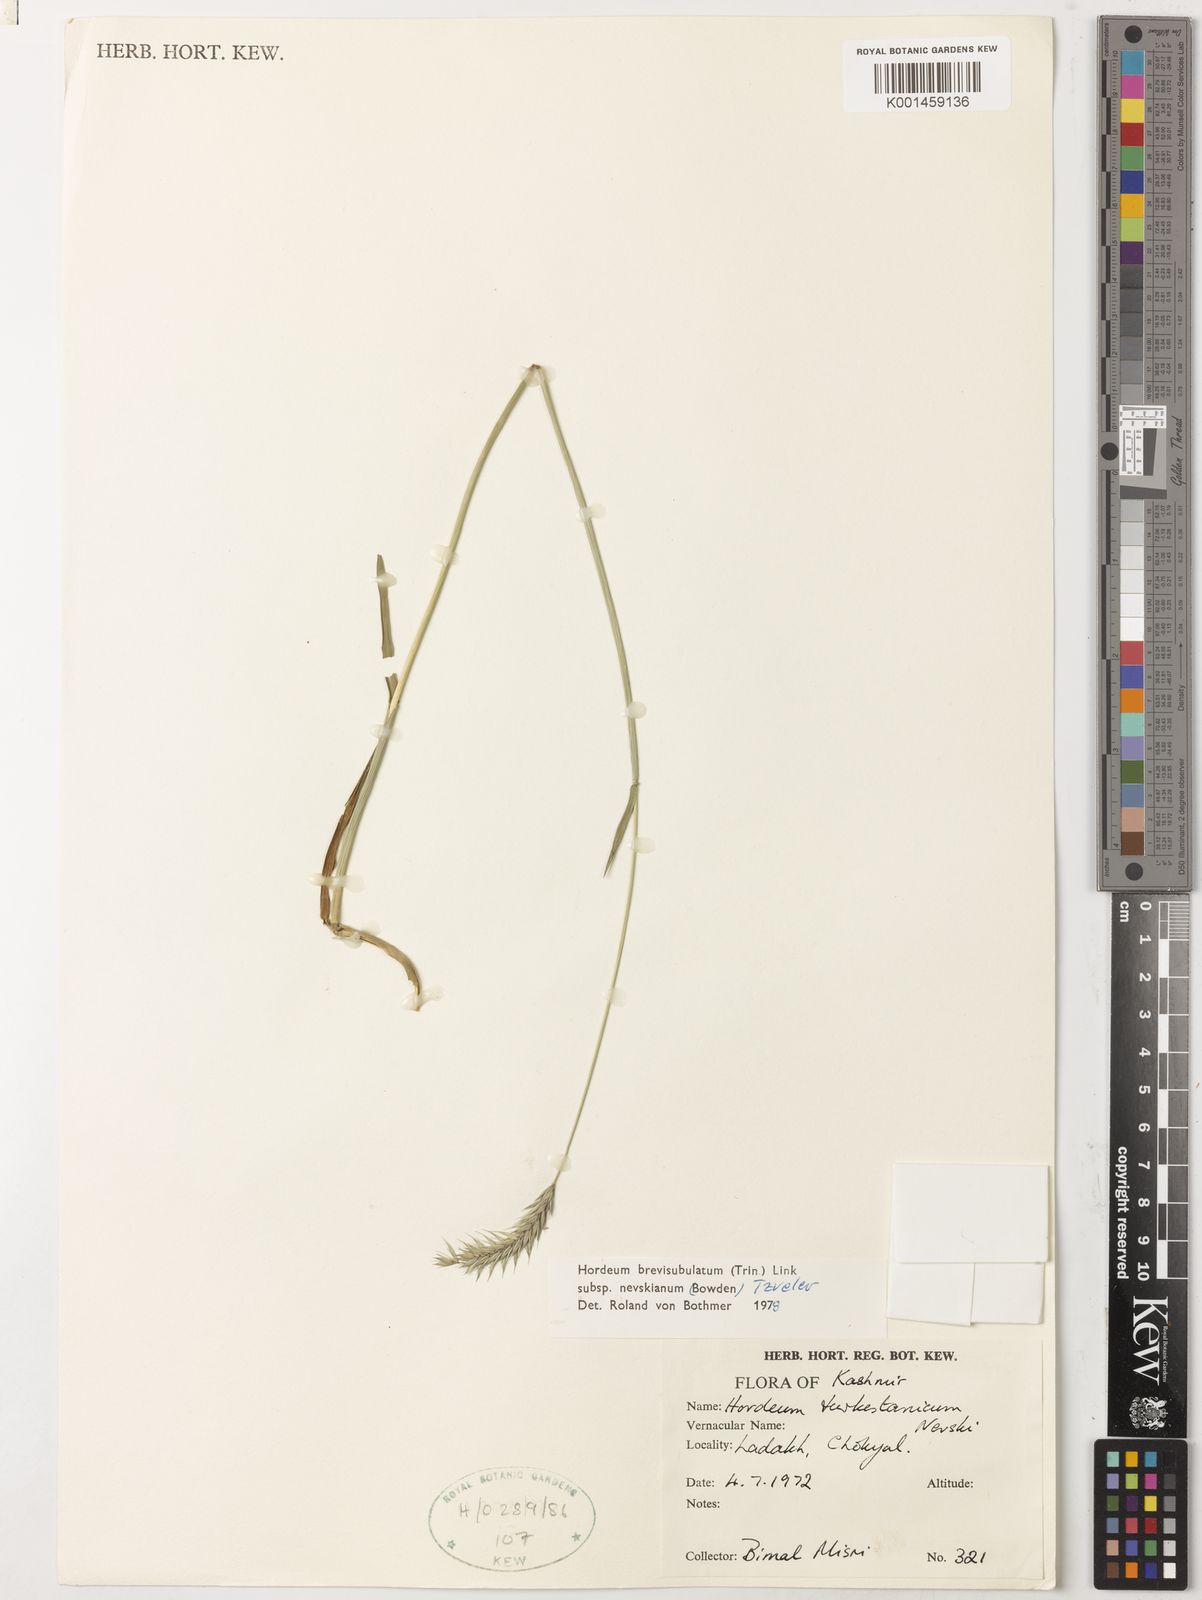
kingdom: Plantae
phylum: Tracheophyta
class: Liliopsida
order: Poales
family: Poaceae
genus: Hordeum
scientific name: Hordeum brevisubulatum
